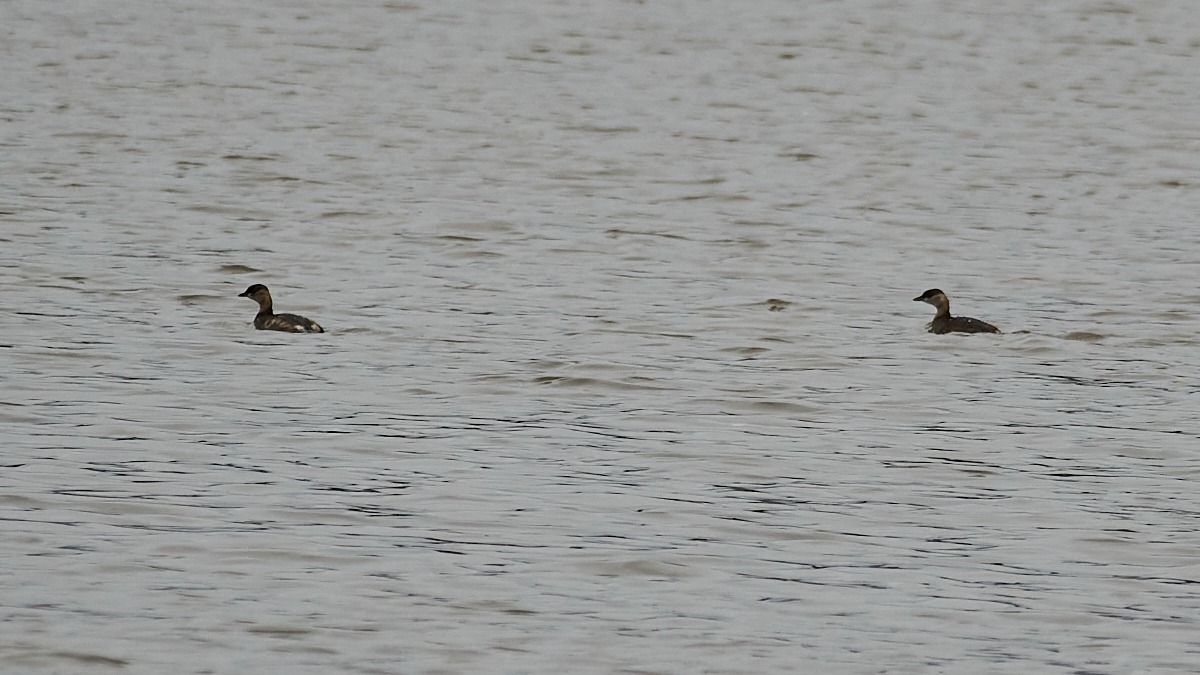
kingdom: Animalia
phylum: Chordata
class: Aves
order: Podicipediformes
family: Podicipedidae
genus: Tachybaptus
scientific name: Tachybaptus ruficollis
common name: Lille lappedykker
